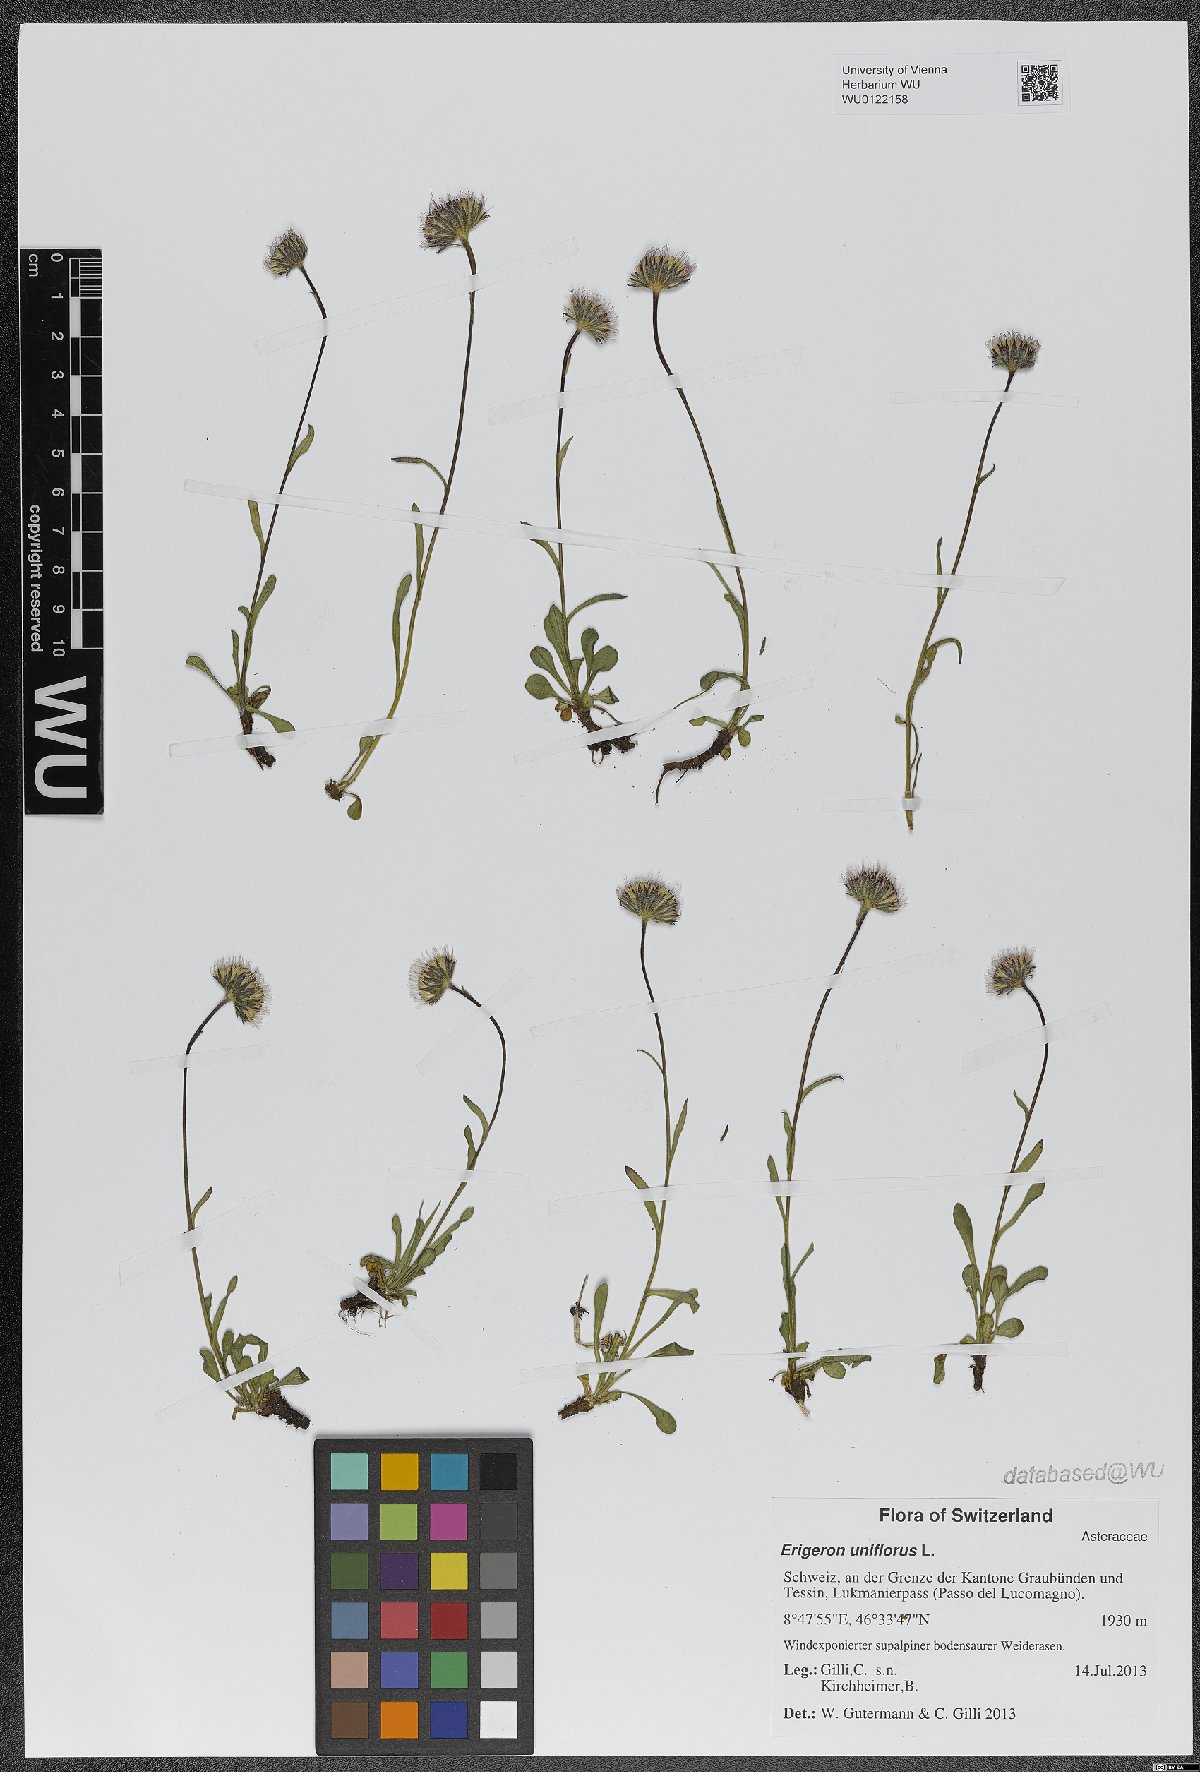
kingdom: Plantae
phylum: Tracheophyta
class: Magnoliopsida
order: Asterales
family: Asteraceae
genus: Erigeron
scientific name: Erigeron uniflorus
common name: Northern daisy
